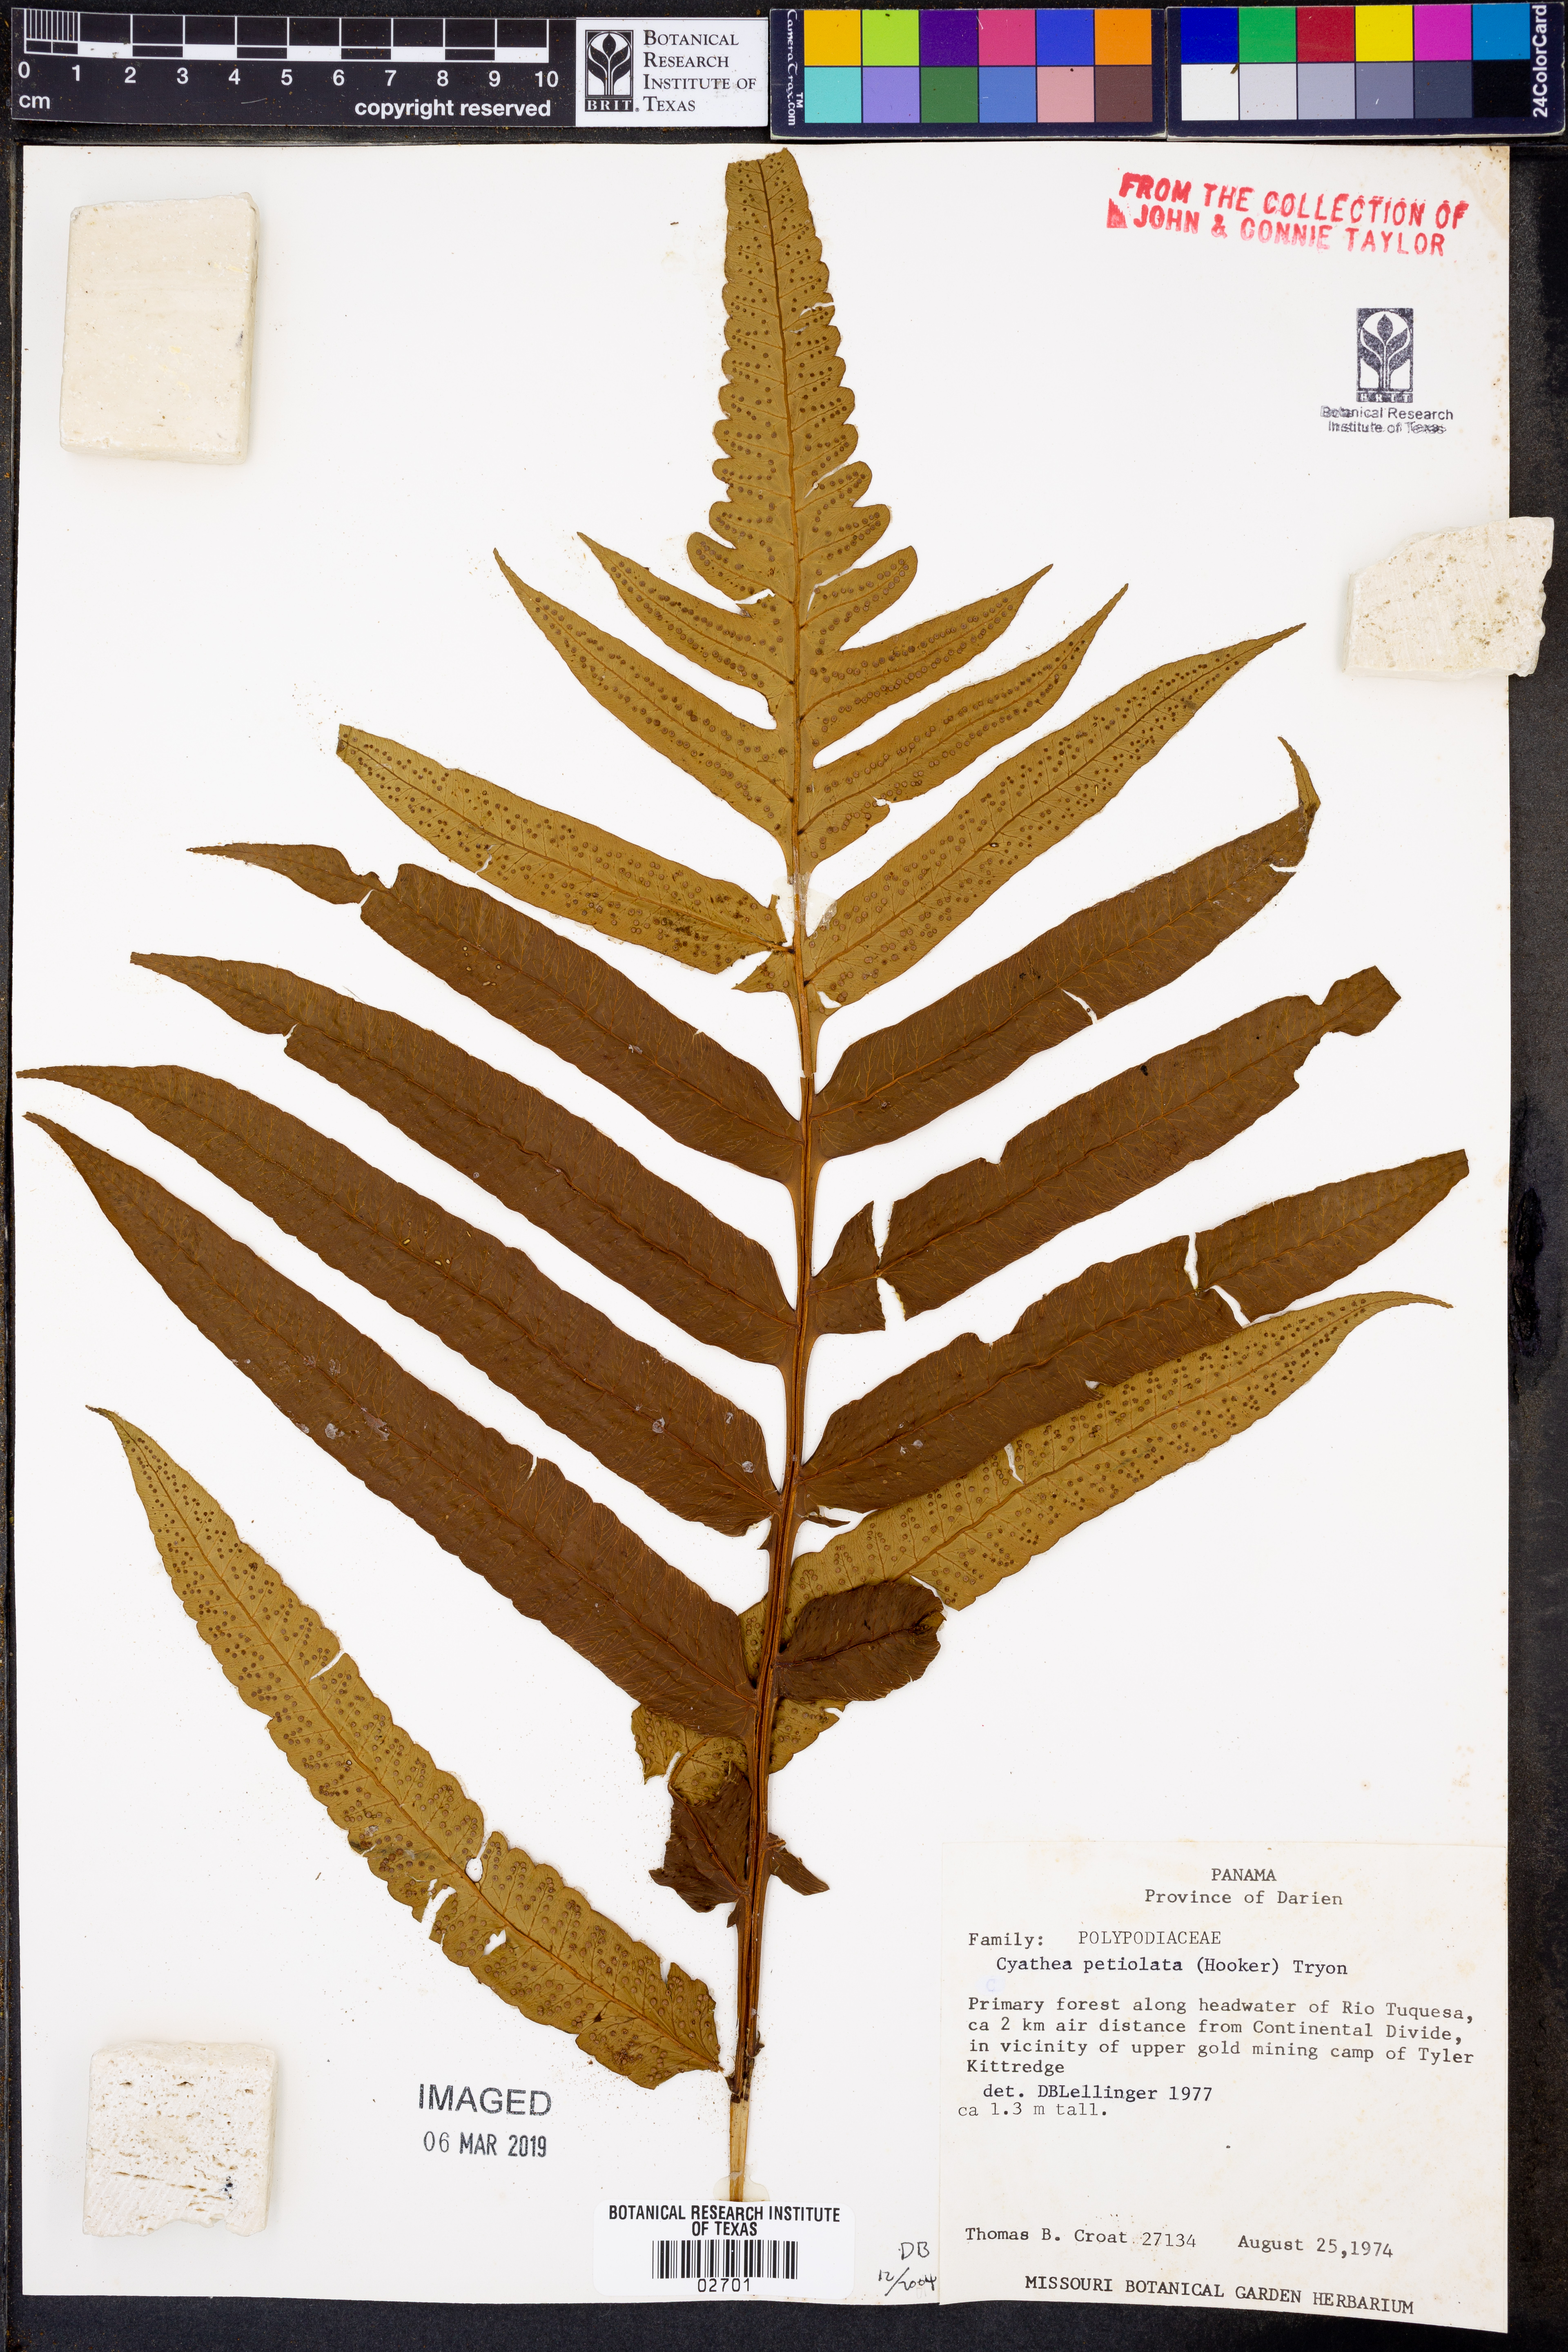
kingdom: Plantae
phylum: Tracheophyta
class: Polypodiopsida
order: Cyatheales
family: Cyatheaceae
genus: Cyathea
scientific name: Cyathea petiolata
